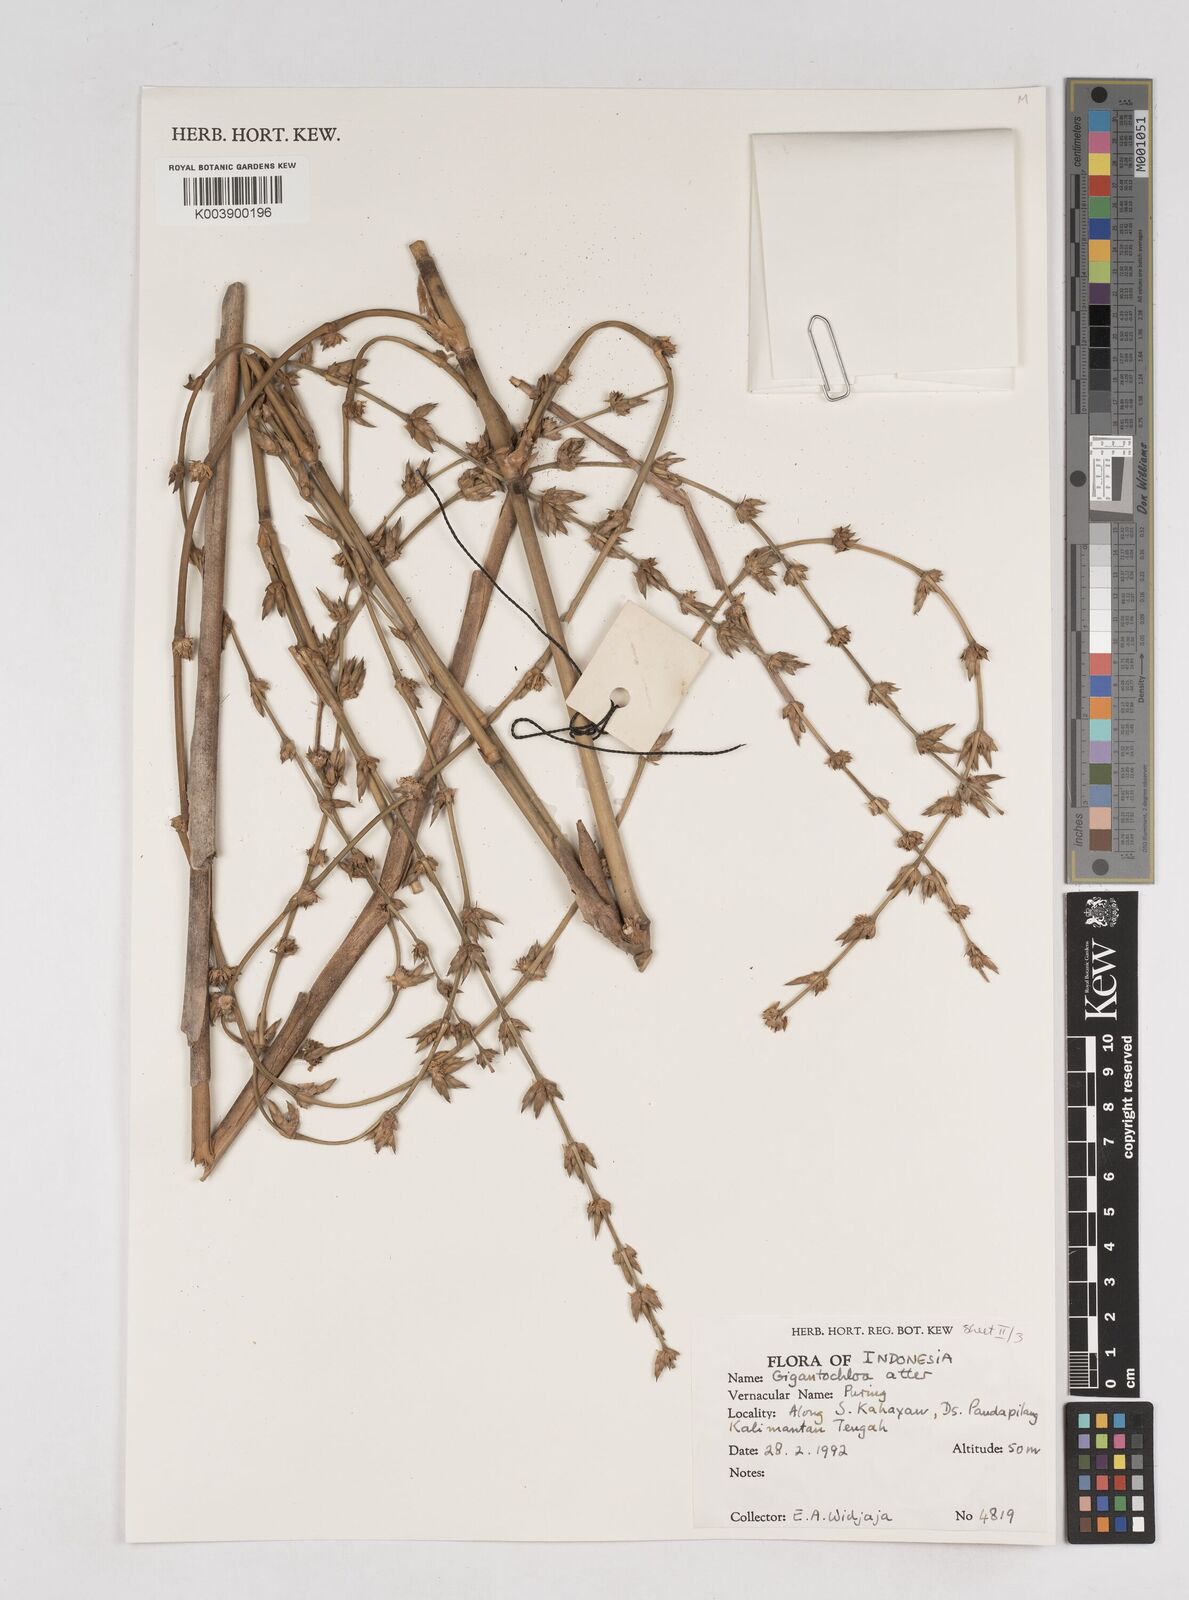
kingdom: Plantae
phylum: Tracheophyta
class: Liliopsida
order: Poales
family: Poaceae
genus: Gigantochloa
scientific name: Gigantochloa atter
